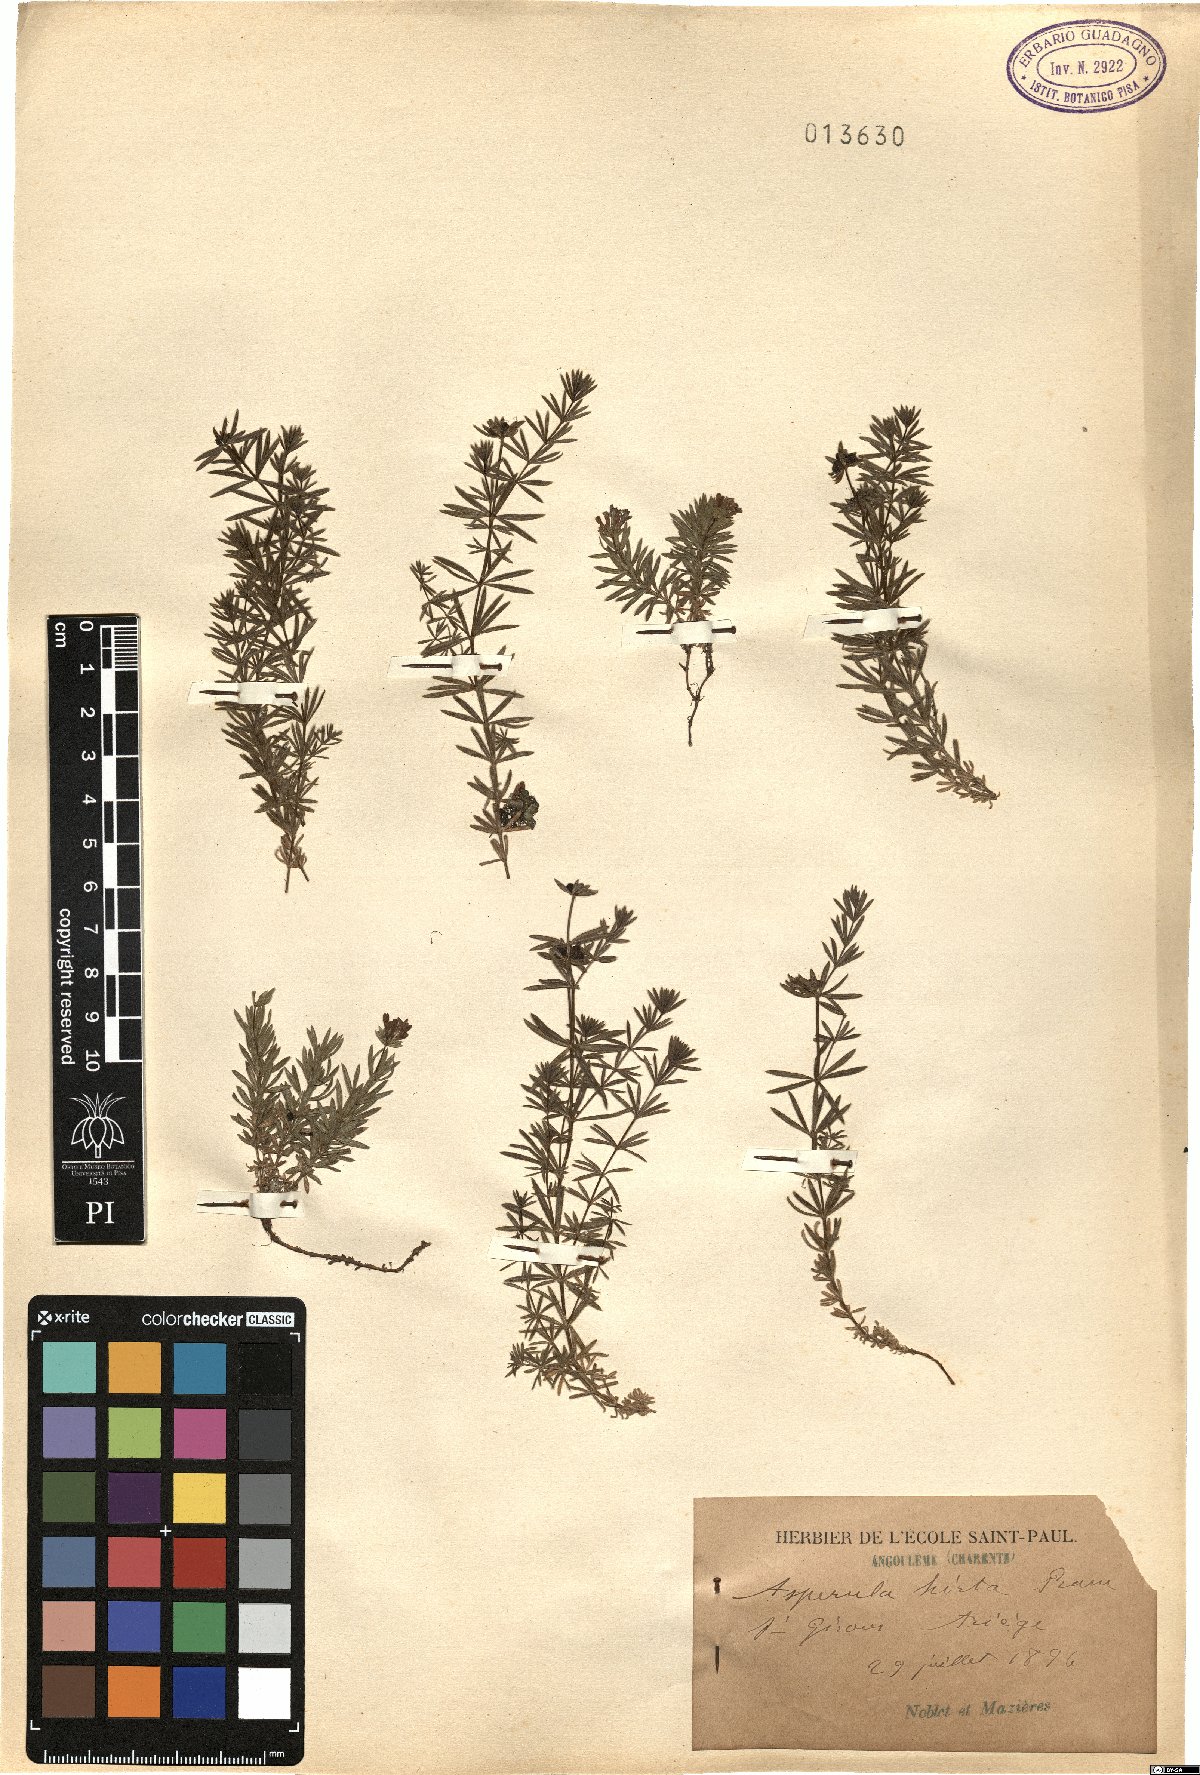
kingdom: Plantae
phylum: Tracheophyta
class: Magnoliopsida
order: Gentianales
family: Rubiaceae
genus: Hexaphylla
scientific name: Hexaphylla hirta
